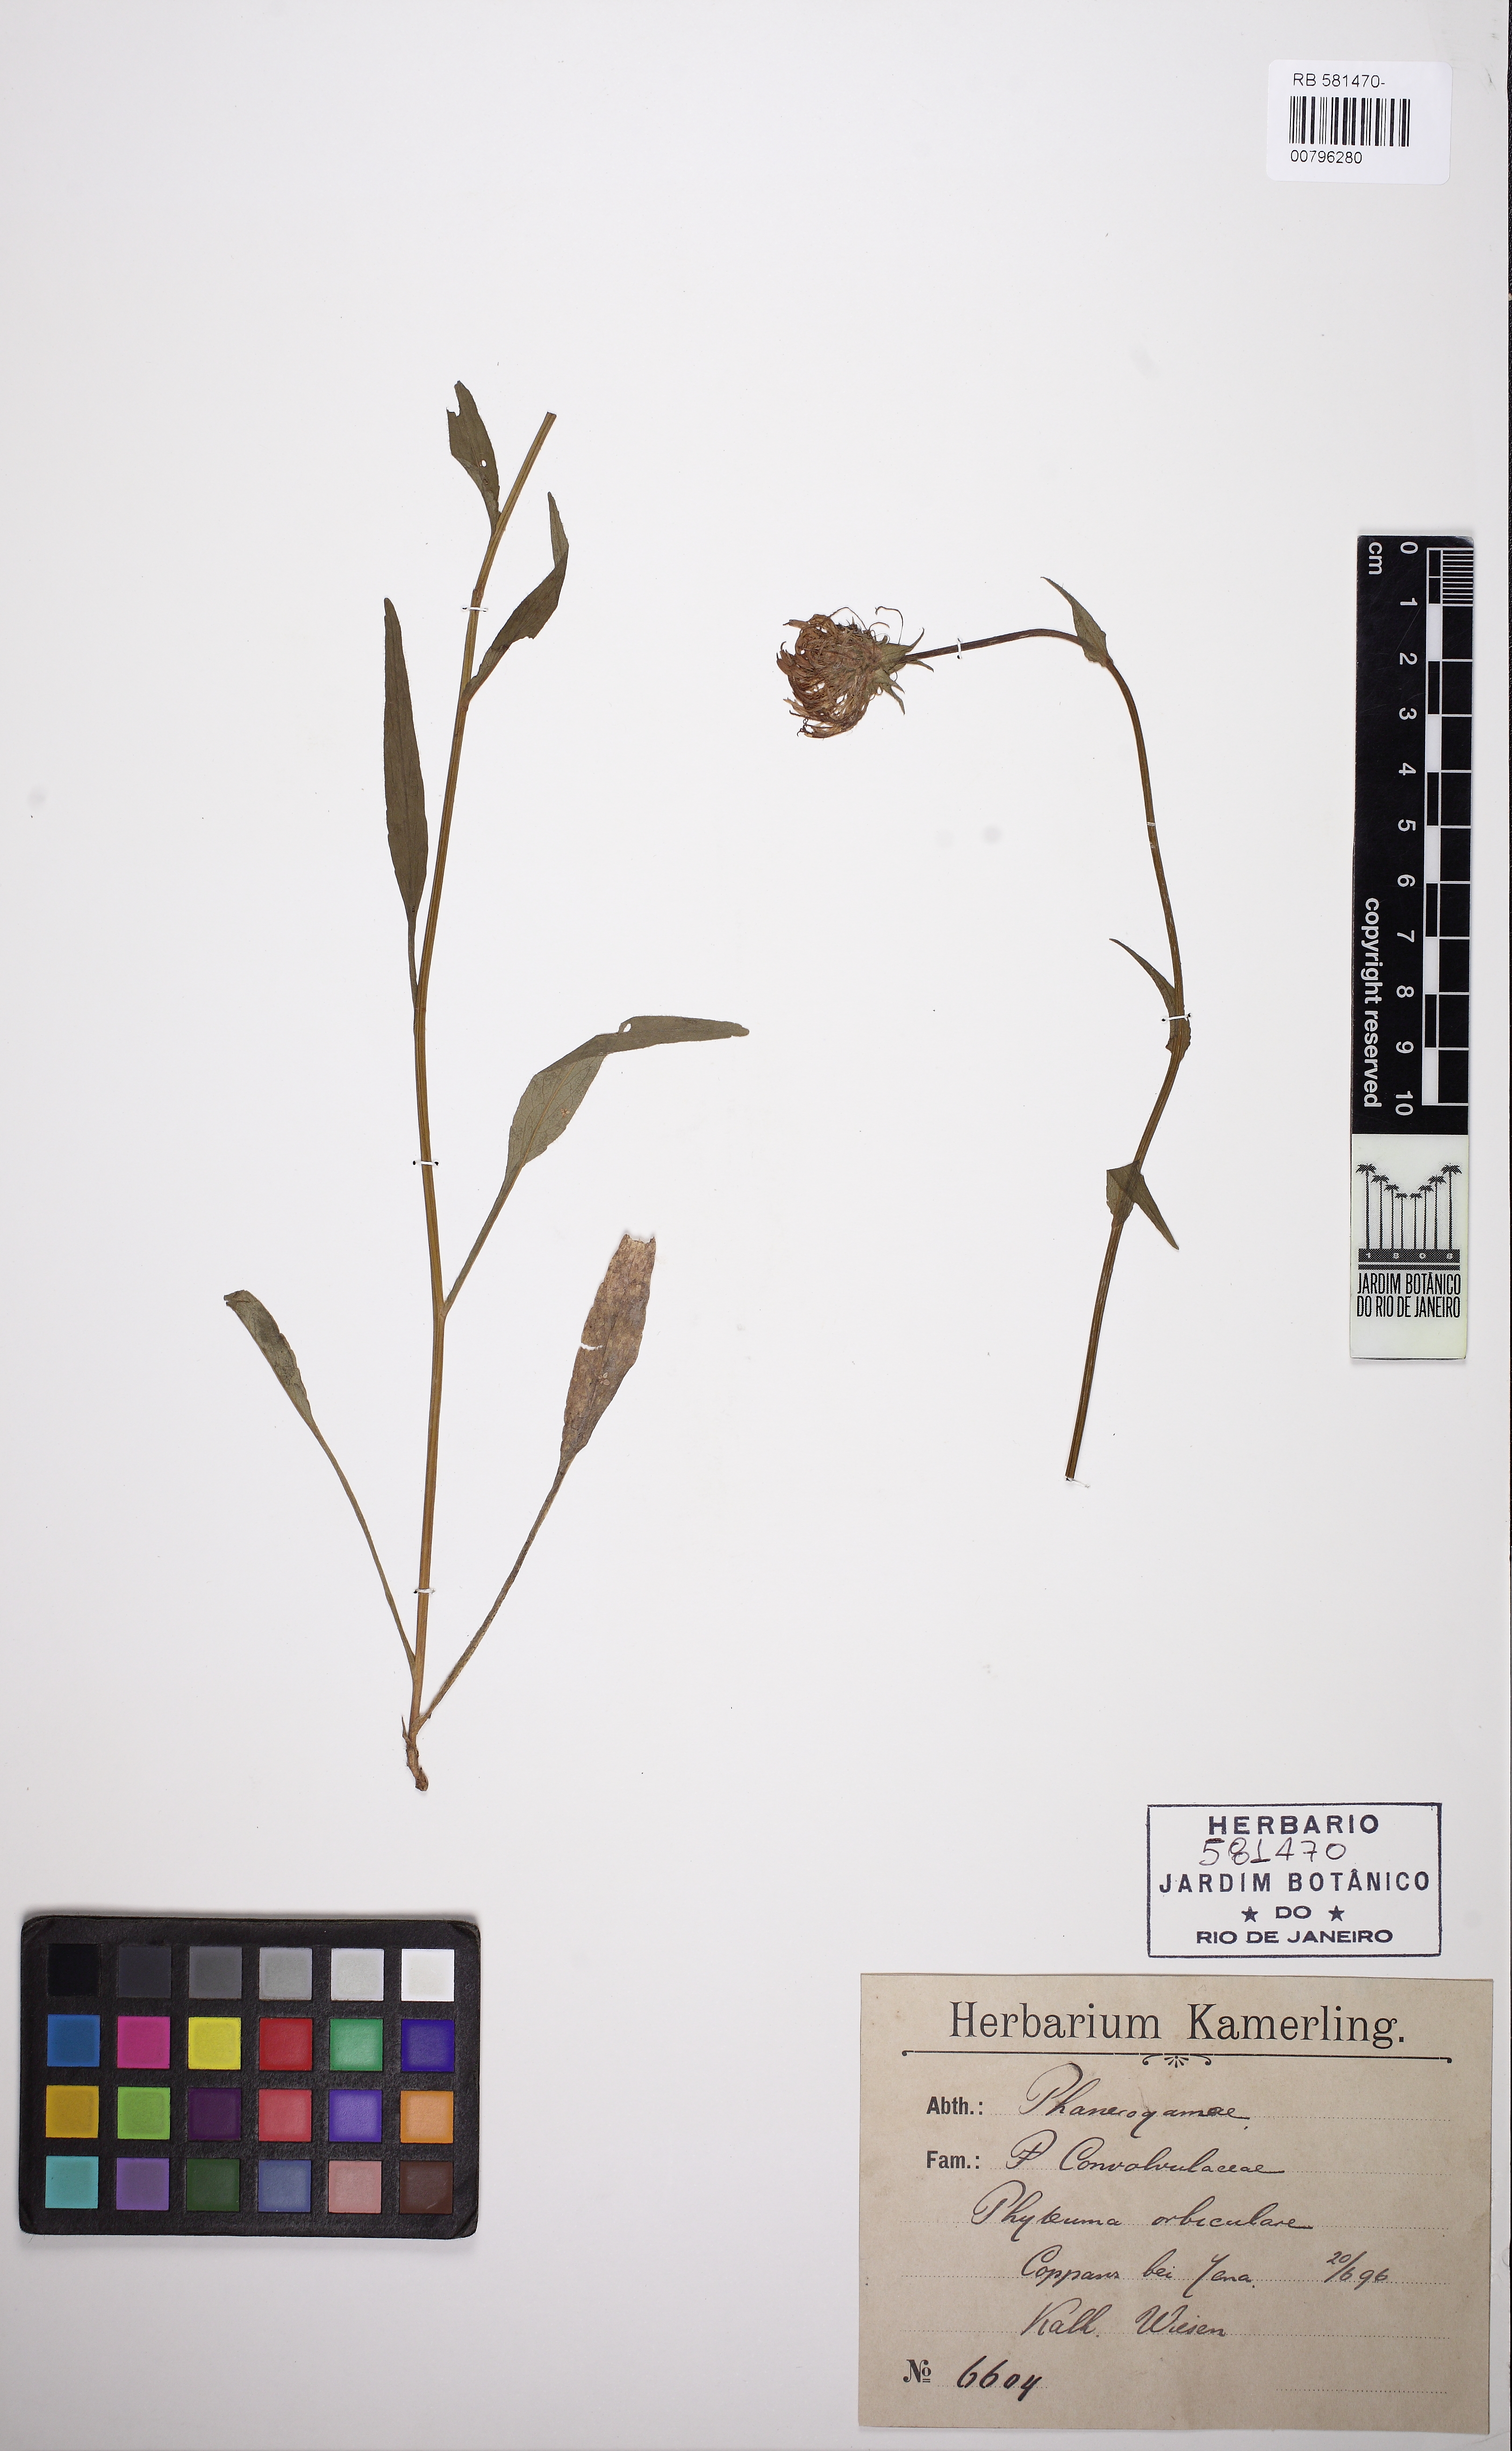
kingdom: Plantae
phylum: Tracheophyta
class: Magnoliopsida
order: Solanales
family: Convolvulaceae
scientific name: Convolvulaceae
